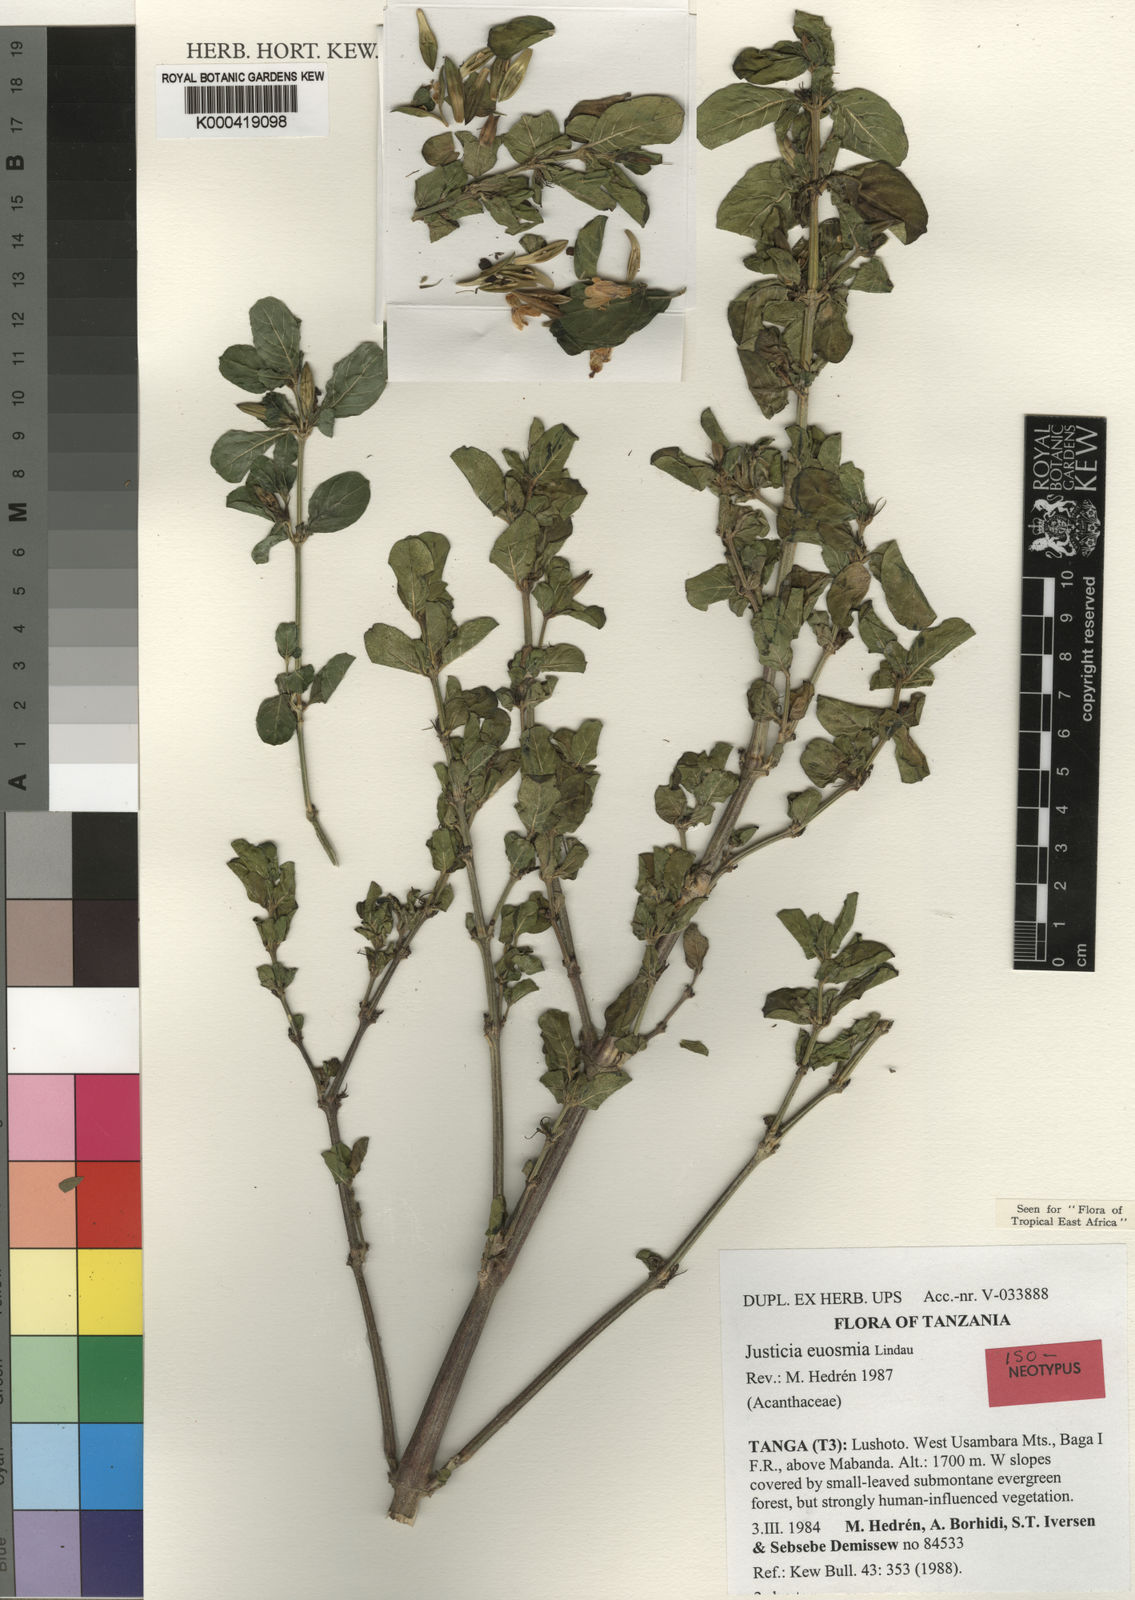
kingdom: Plantae
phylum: Tracheophyta
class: Magnoliopsida
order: Lamiales
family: Acanthaceae
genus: Justicia
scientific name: Justicia euosmia
